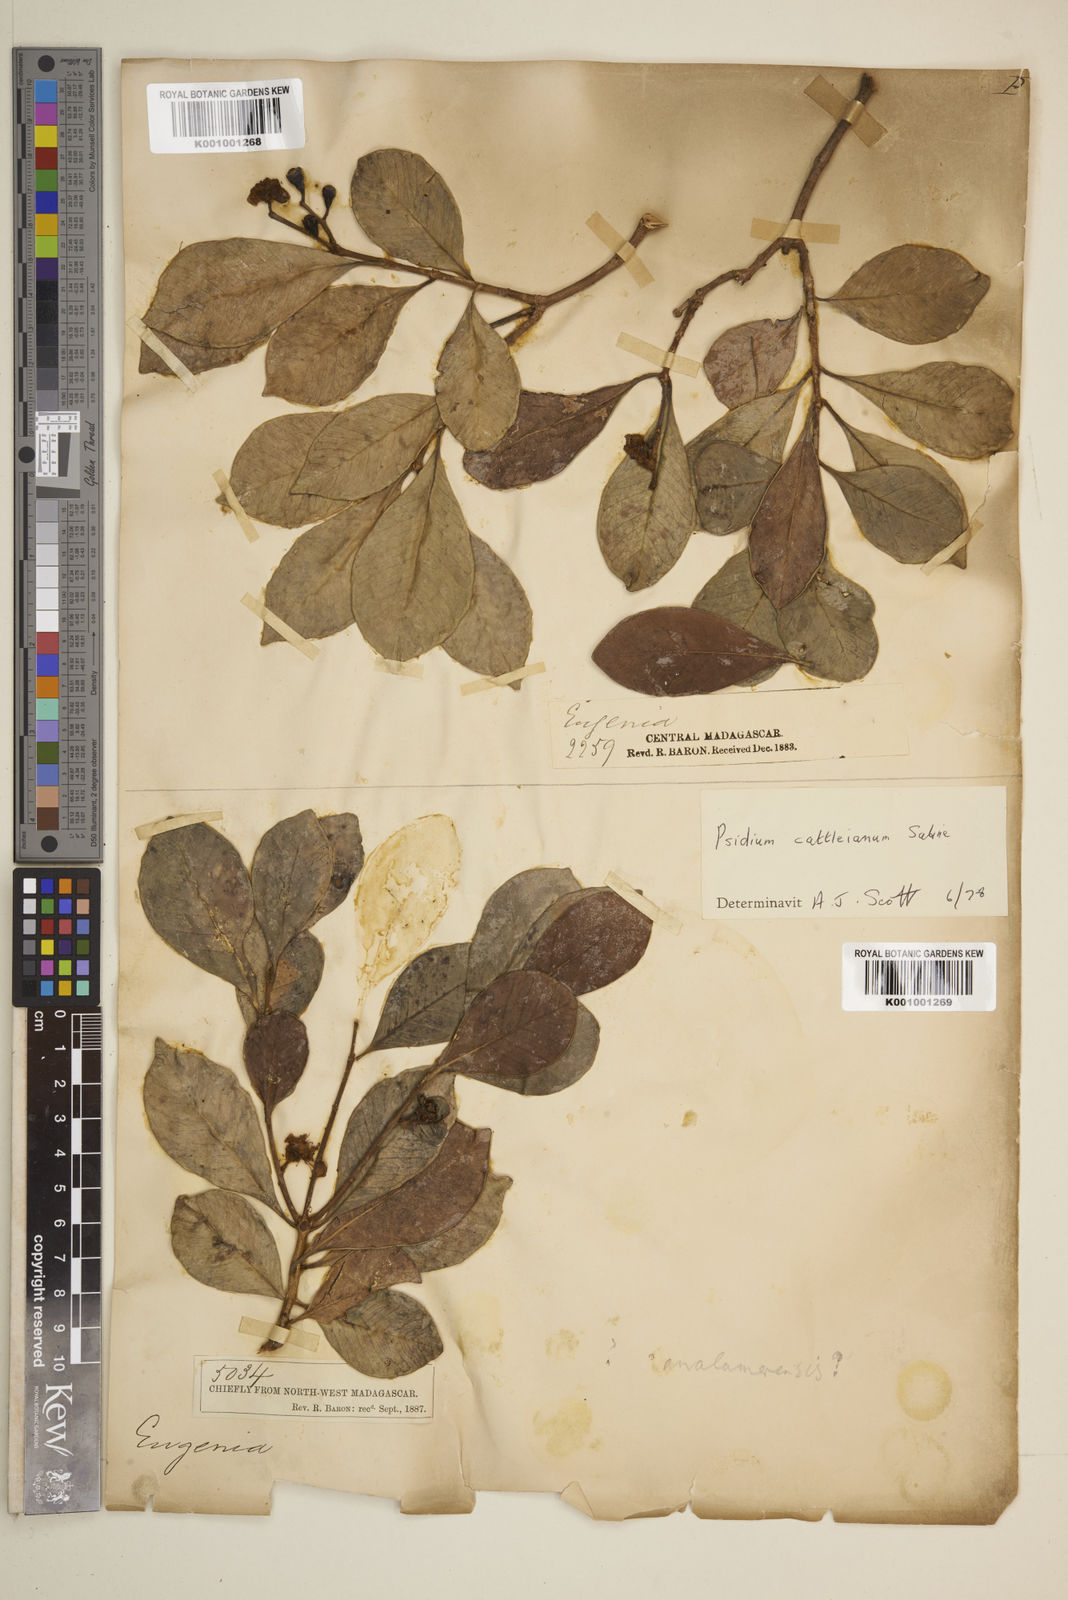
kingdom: Plantae
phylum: Tracheophyta
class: Magnoliopsida
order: Myrtales
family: Myrtaceae
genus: Eugenia
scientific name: Eugenia analamerensis
